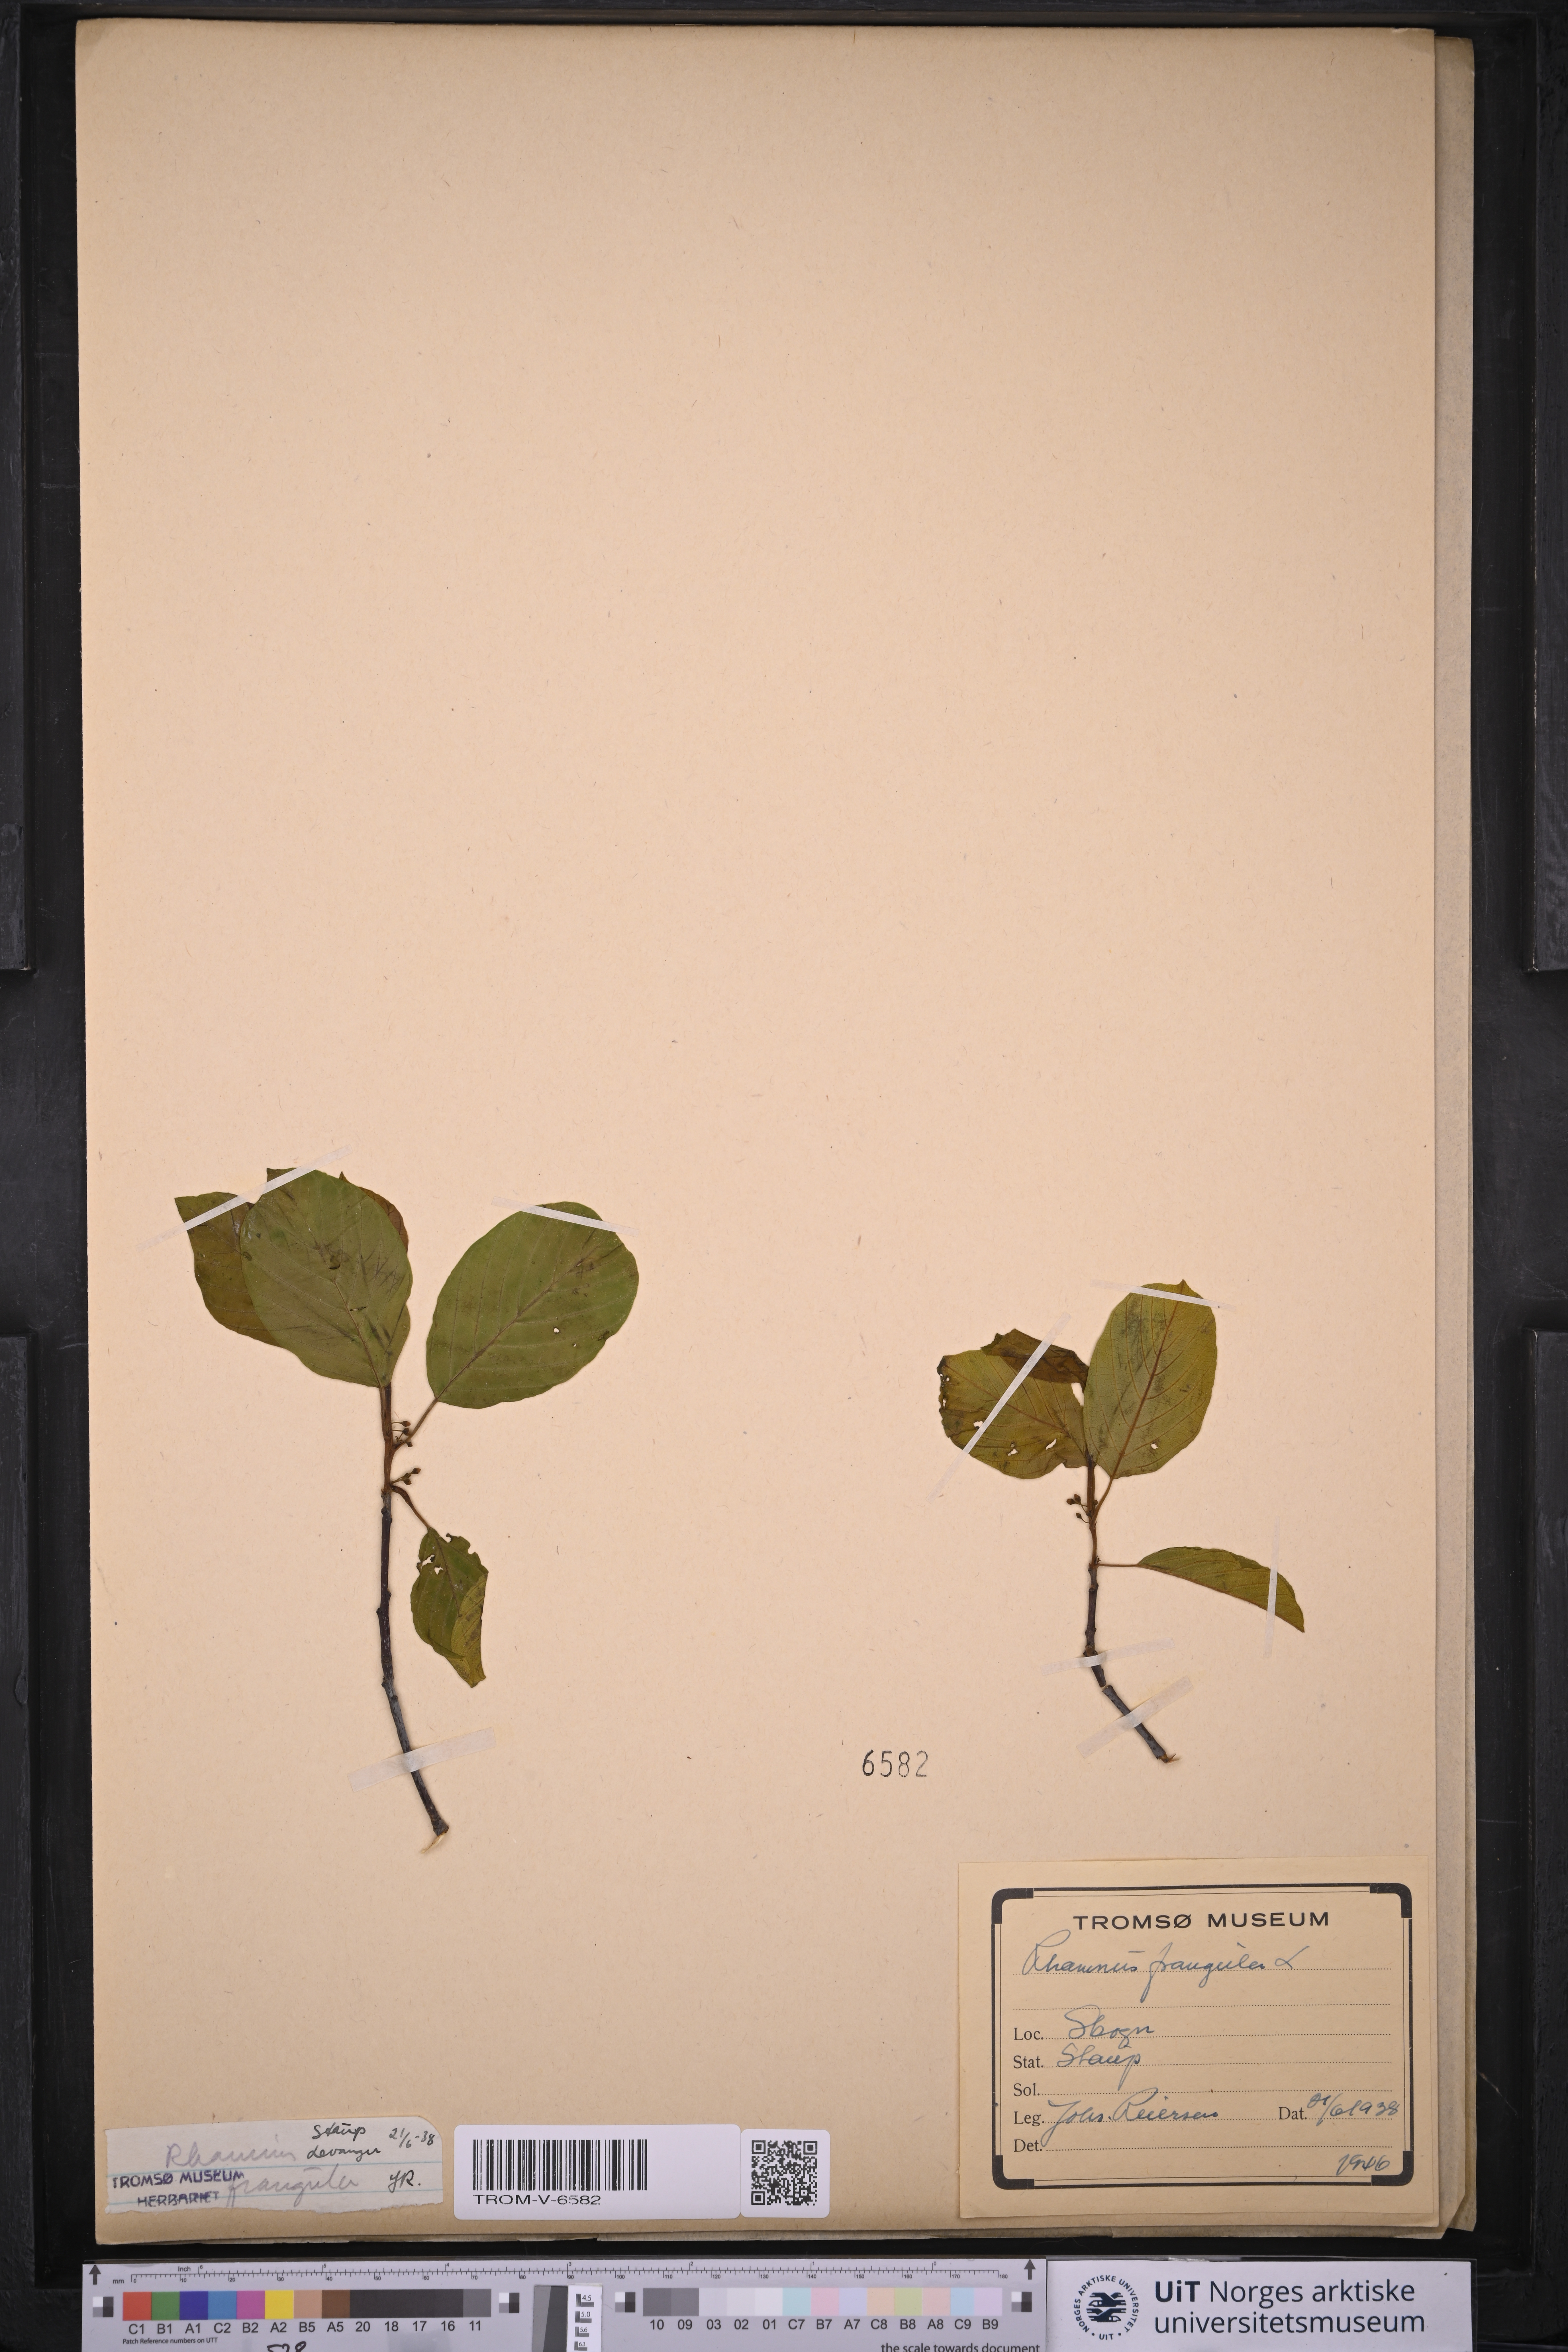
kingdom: Plantae
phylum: Tracheophyta
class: Magnoliopsida
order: Rosales
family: Rhamnaceae
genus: Frangula
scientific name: Frangula alnus
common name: Alder buckthorn
